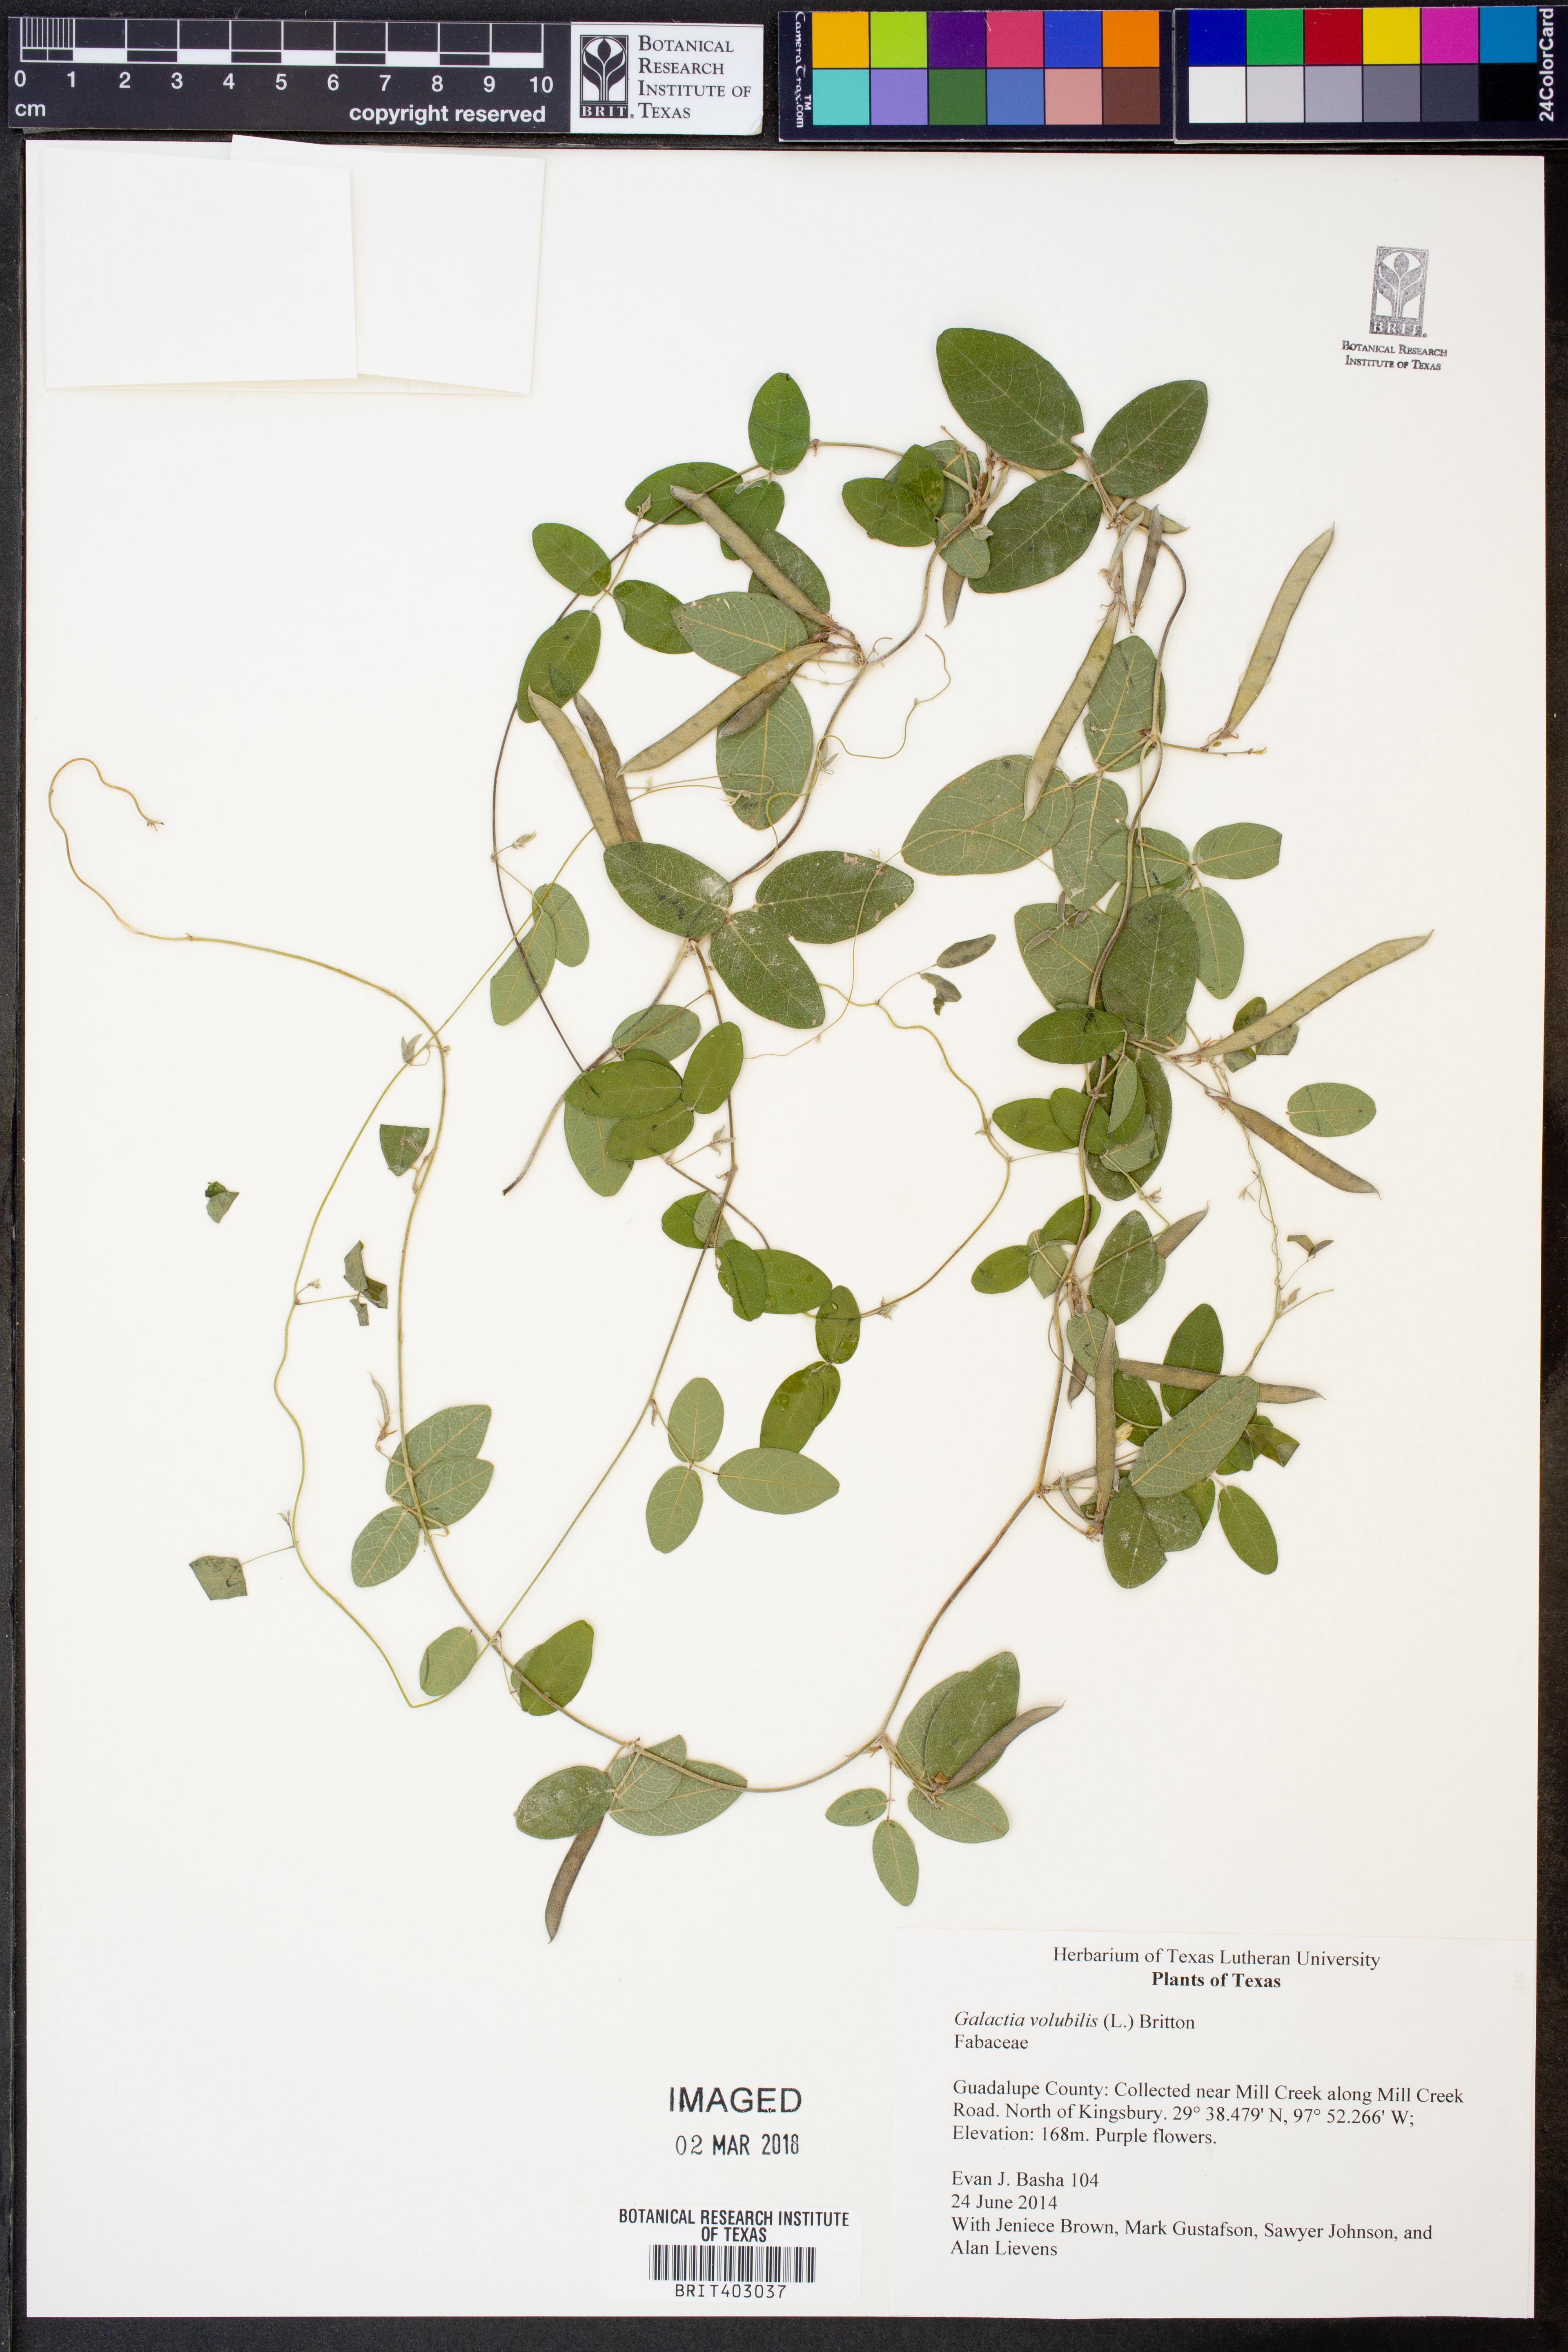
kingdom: Plantae
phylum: Tracheophyta
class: Magnoliopsida
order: Fabales
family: Fabaceae
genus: Galactia
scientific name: Galactia volubilis
